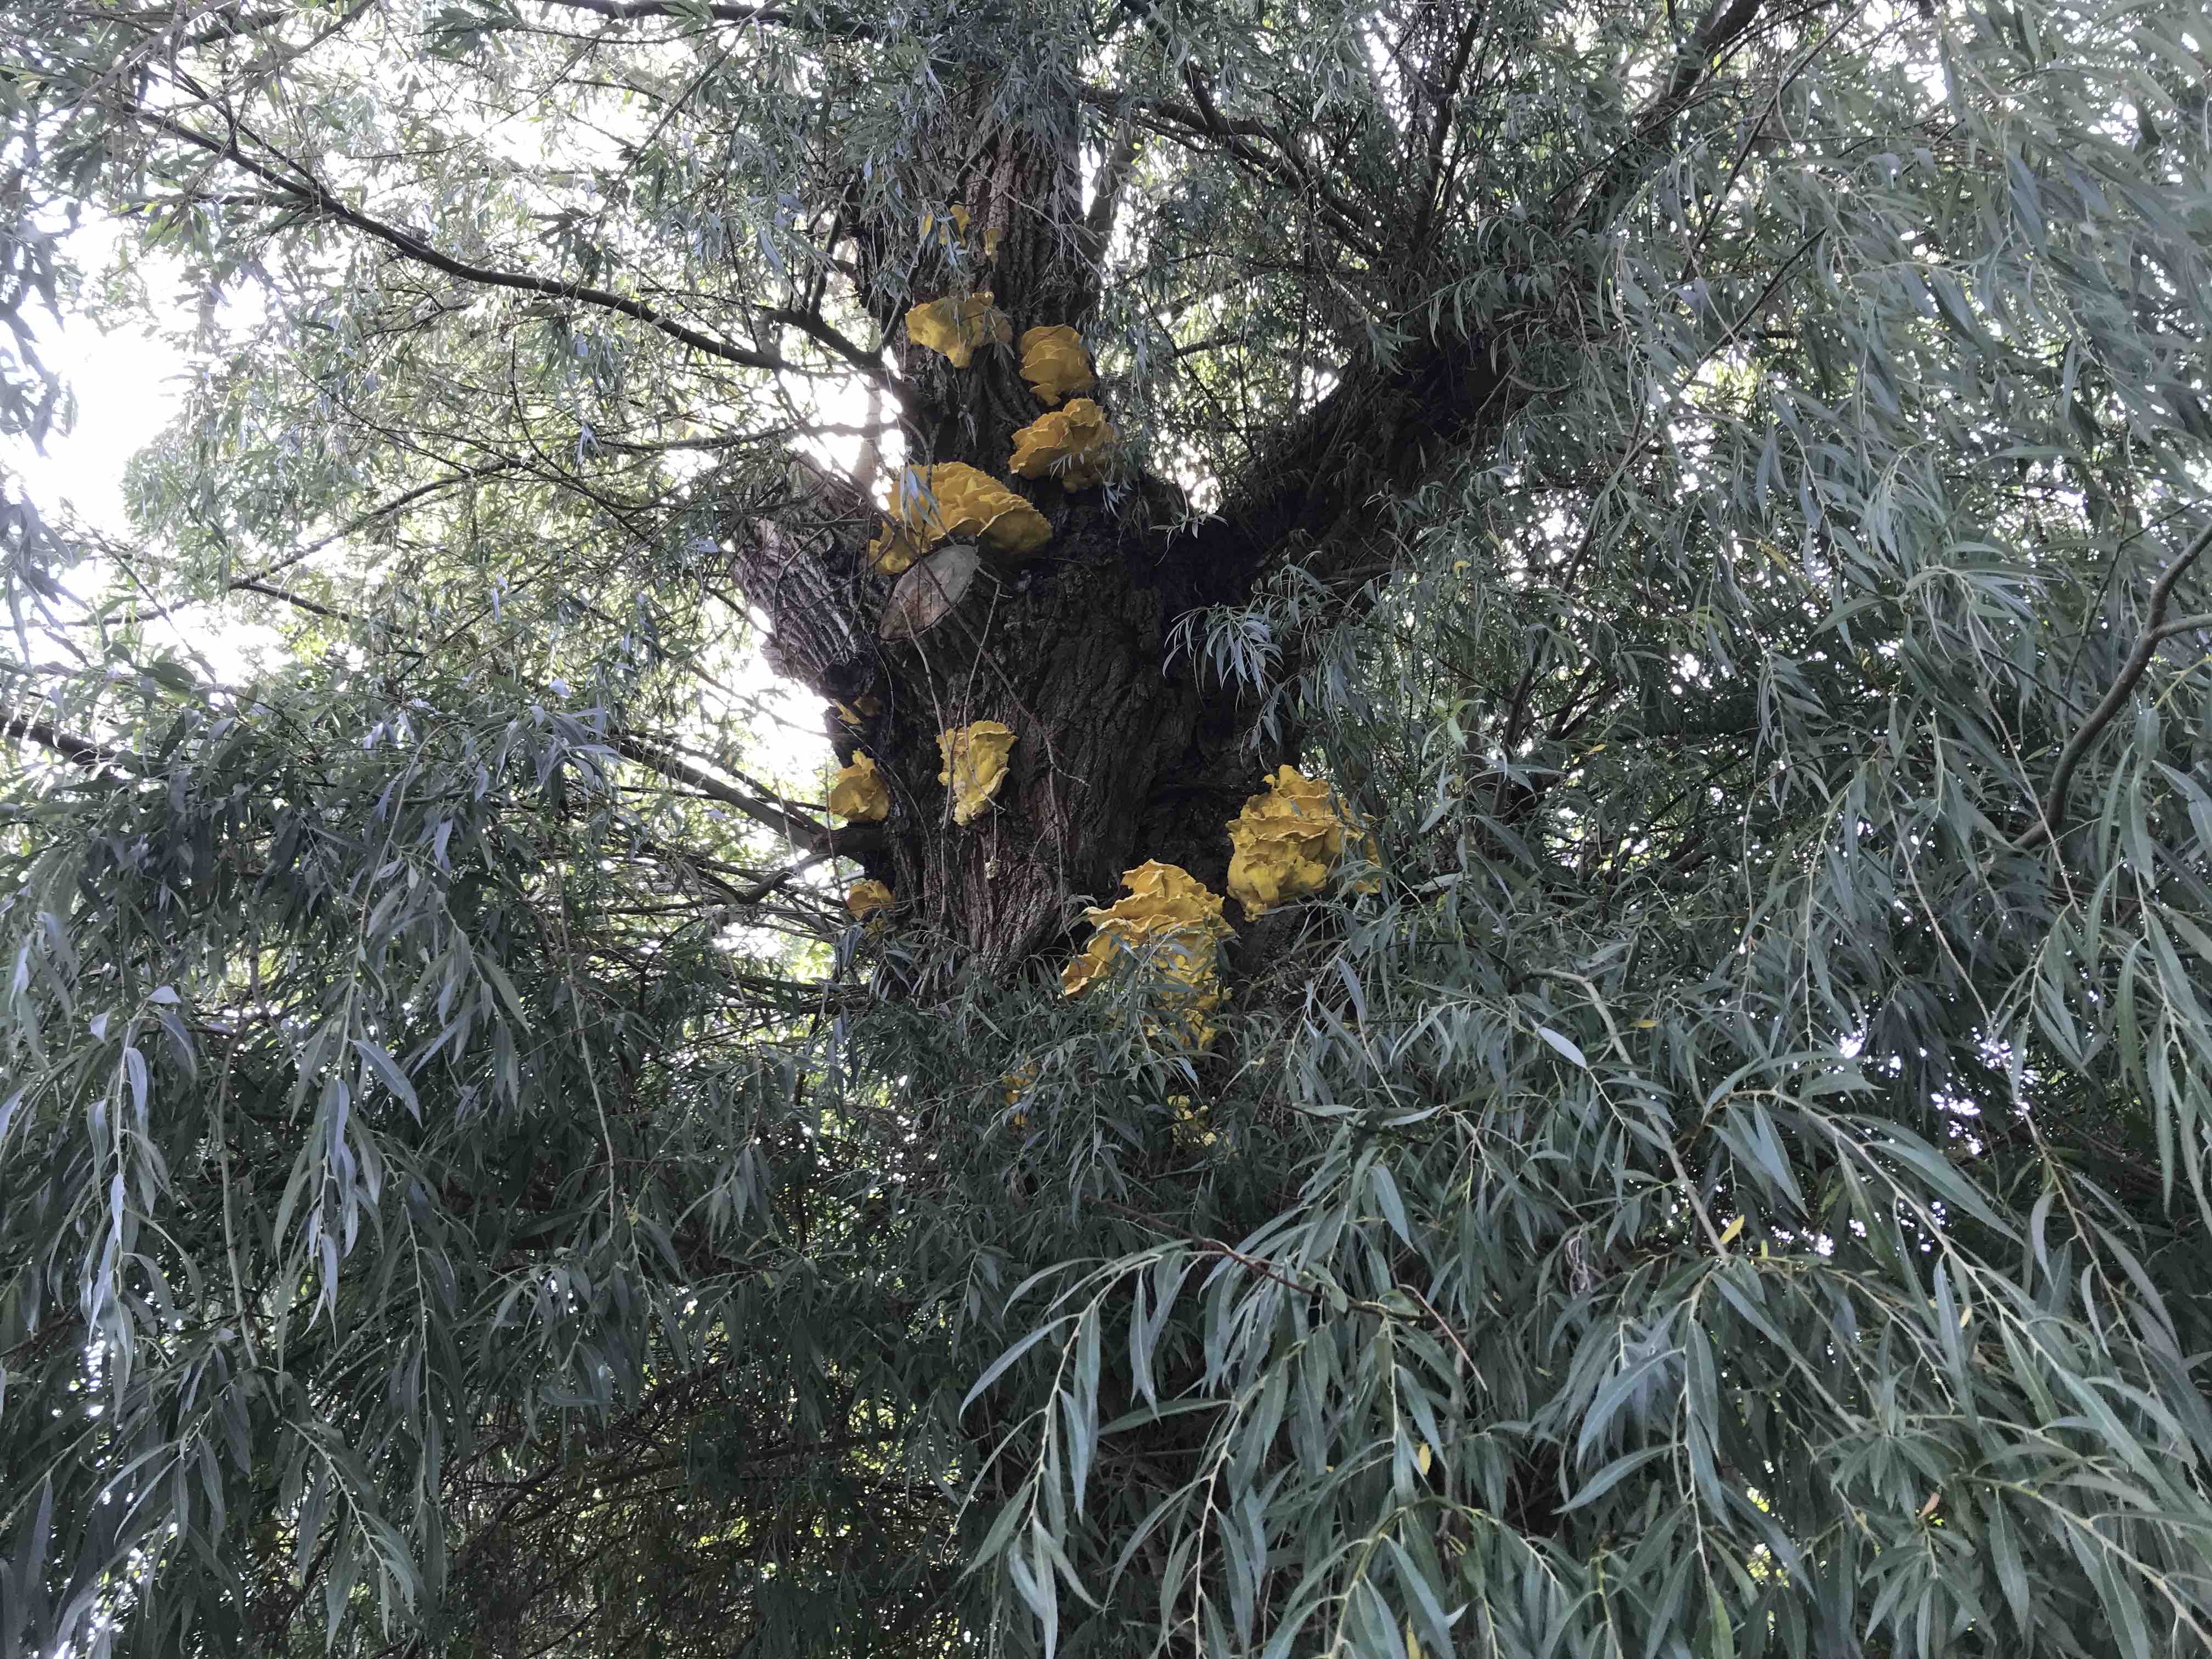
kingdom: Fungi
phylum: Basidiomycota
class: Agaricomycetes
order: Polyporales
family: Laetiporaceae
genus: Laetiporus
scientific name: Laetiporus sulphureus
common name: svovlporesvamp
